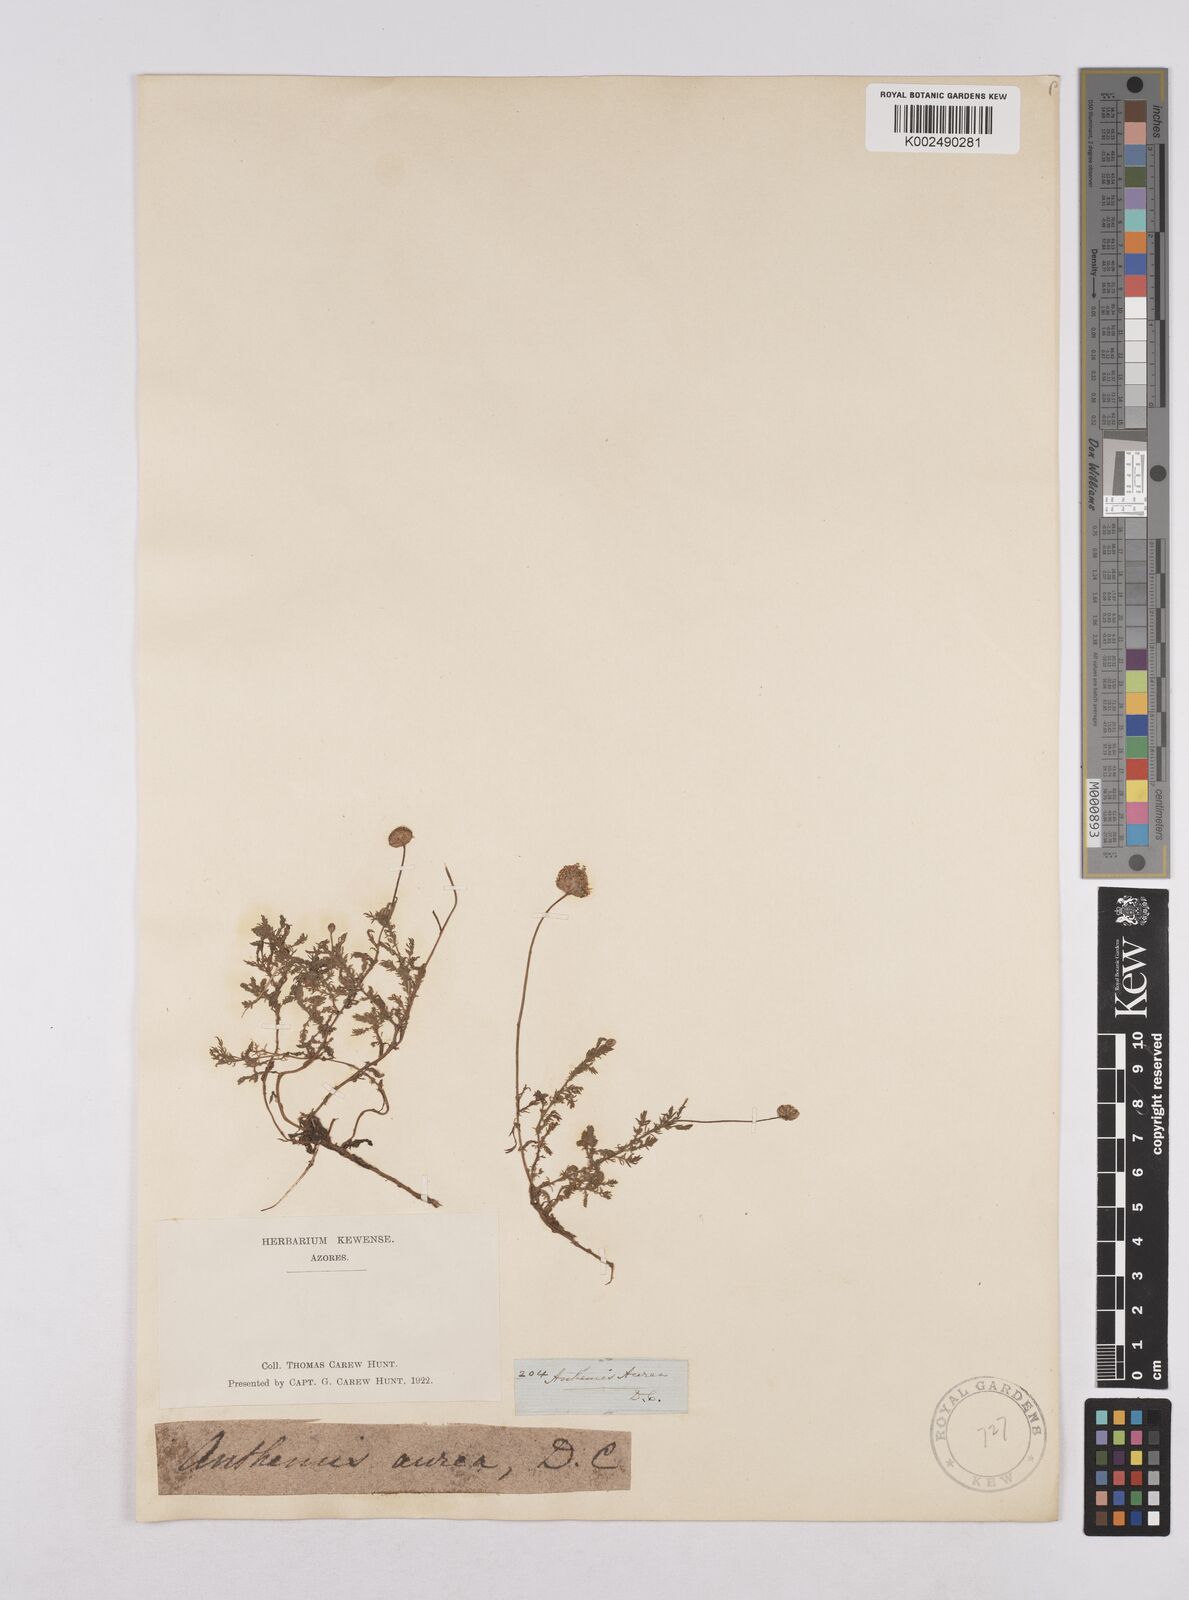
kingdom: Plantae
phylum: Tracheophyta
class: Magnoliopsida
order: Asterales
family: Asteraceae
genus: Cota
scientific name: Cota tinctoria
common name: Golden chamomile
